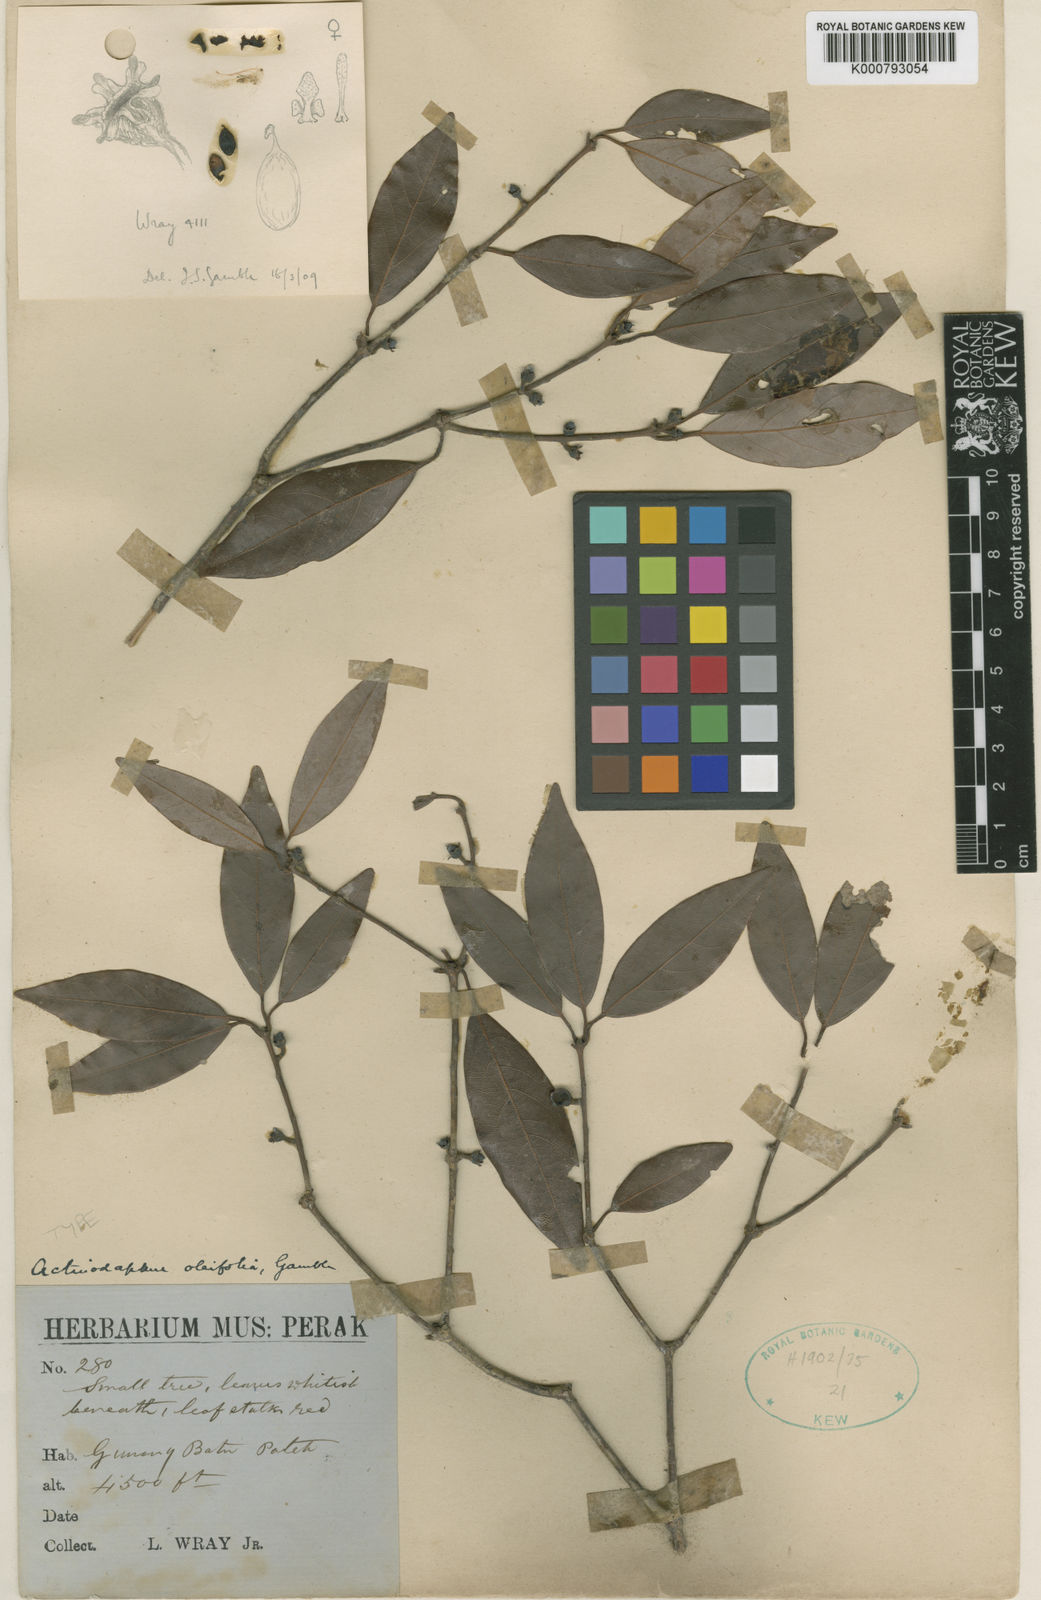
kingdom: Plantae
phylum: Tracheophyta
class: Magnoliopsida
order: Laurales
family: Lauraceae
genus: Actinodaphne
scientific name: Actinodaphne oleifolia
